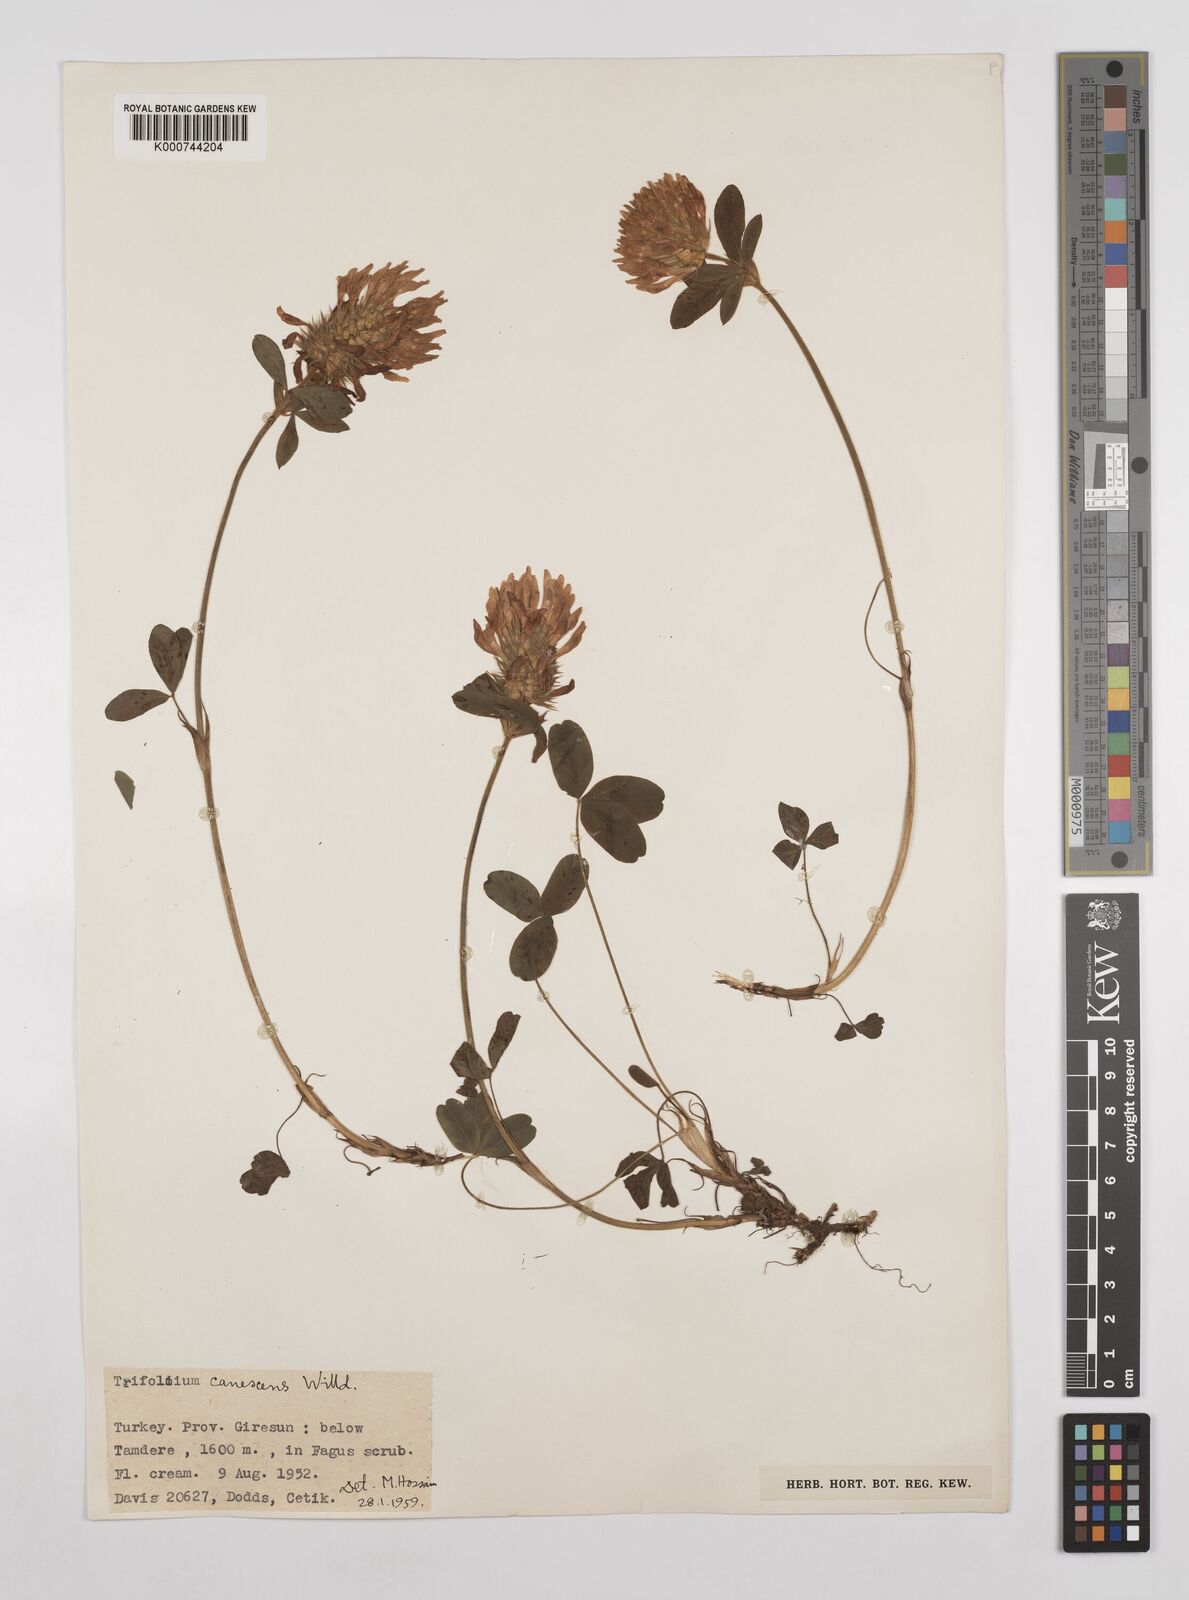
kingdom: Plantae
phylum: Tracheophyta
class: Magnoliopsida
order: Fabales
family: Fabaceae
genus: Trifolium
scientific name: Trifolium canescens
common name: Graying clover
